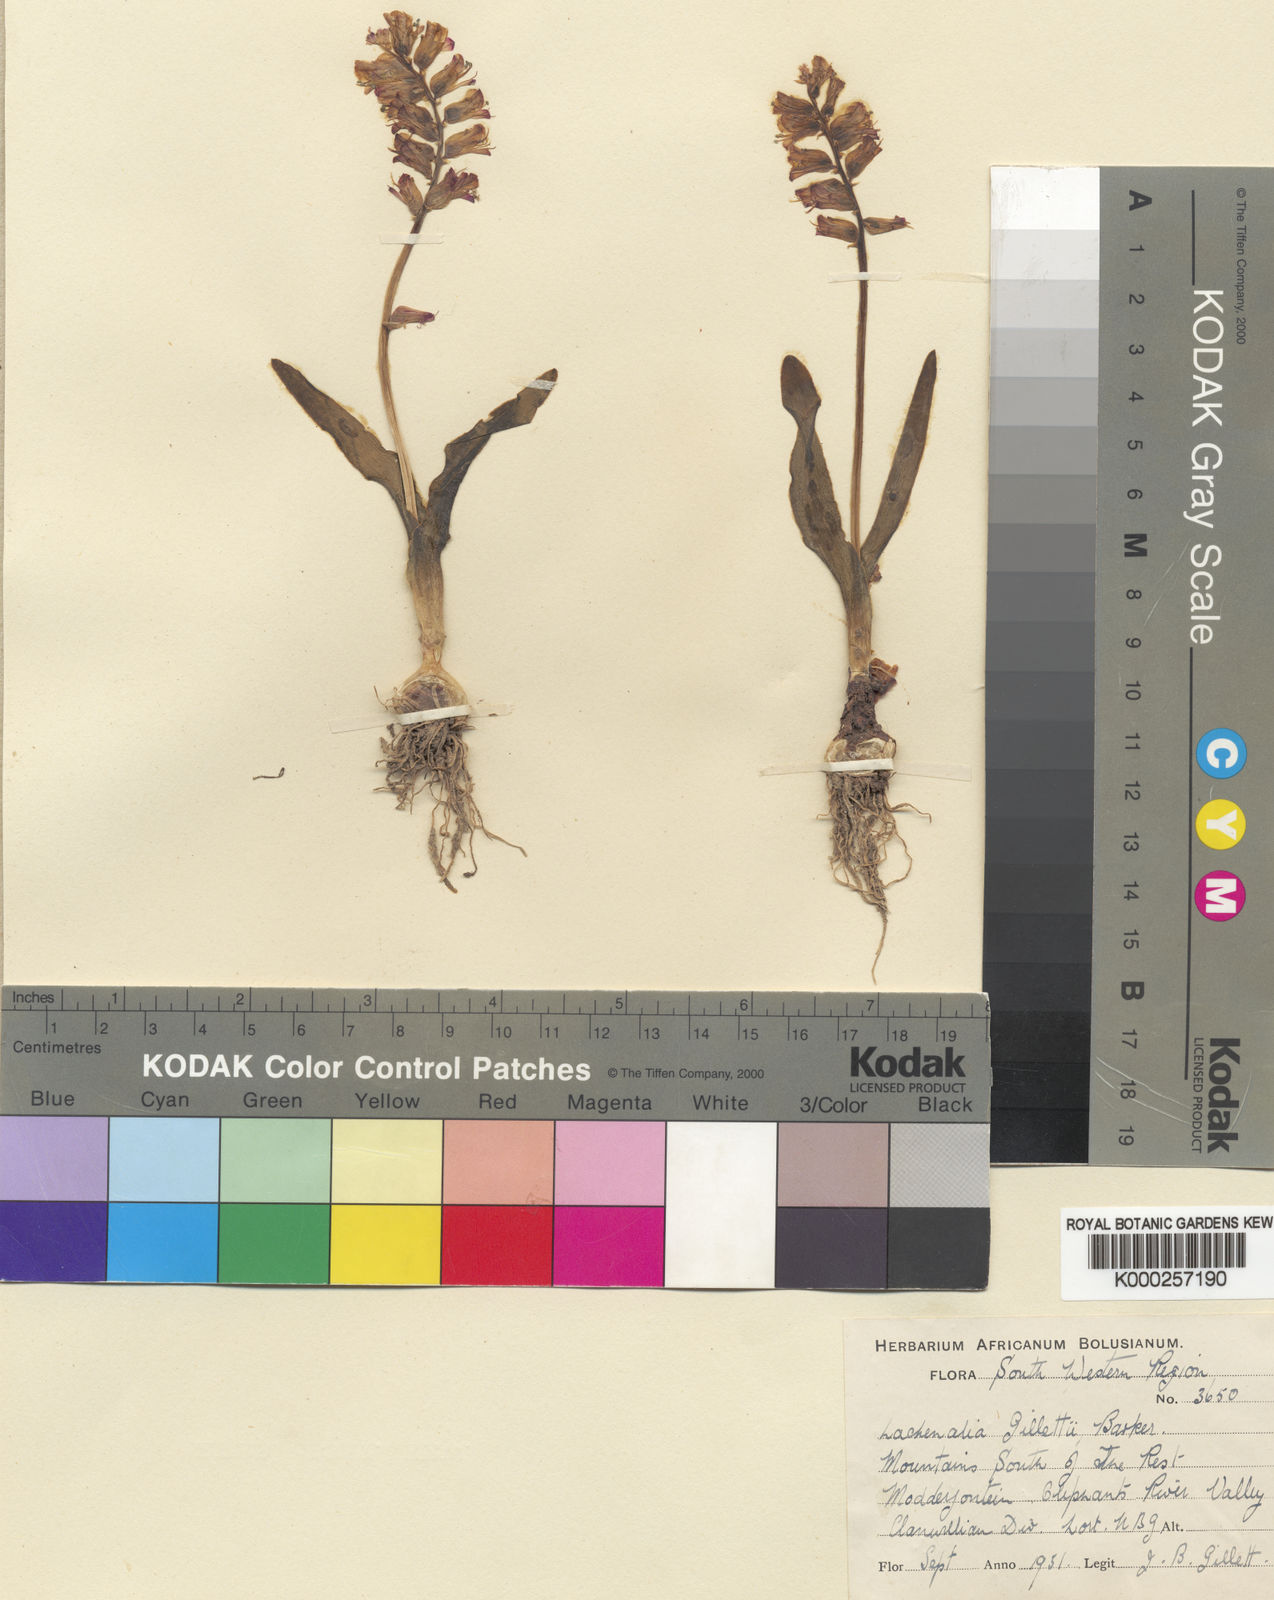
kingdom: Plantae
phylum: Tracheophyta
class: Liliopsida
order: Asparagales
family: Asparagaceae
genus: Lachenalia
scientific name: Lachenalia pallida
